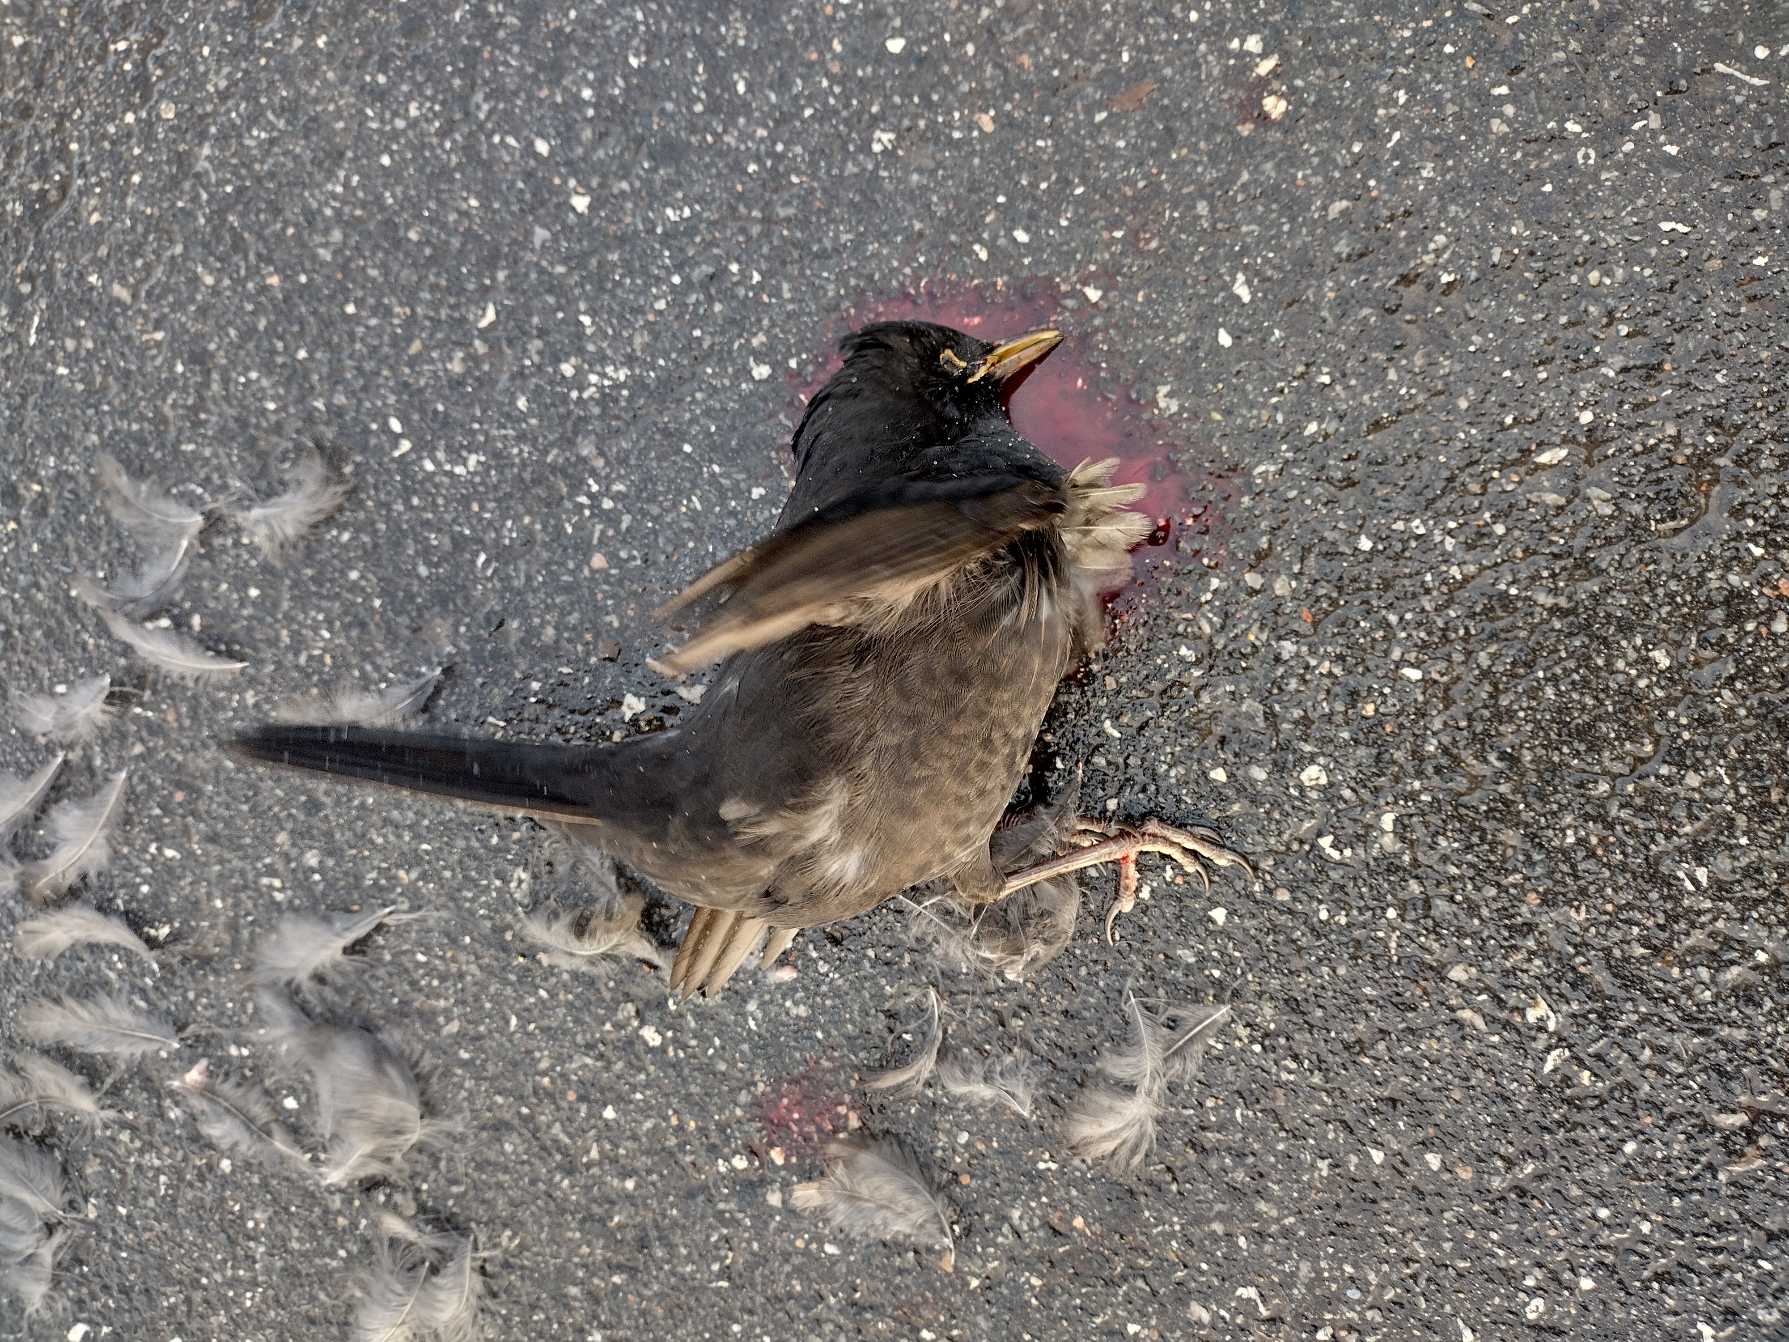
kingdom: Animalia
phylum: Chordata
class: Aves
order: Passeriformes
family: Turdidae
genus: Turdus
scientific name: Turdus merula
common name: Solsort
